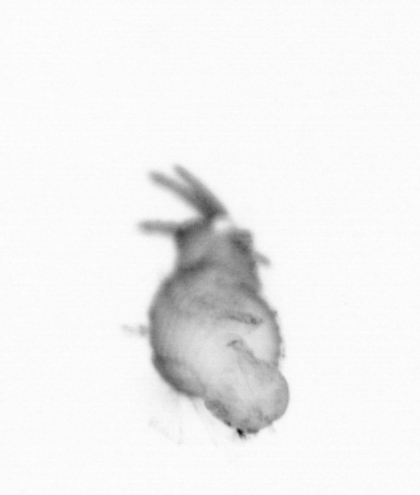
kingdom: Animalia
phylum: Annelida
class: Polychaeta
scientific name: Polychaeta
